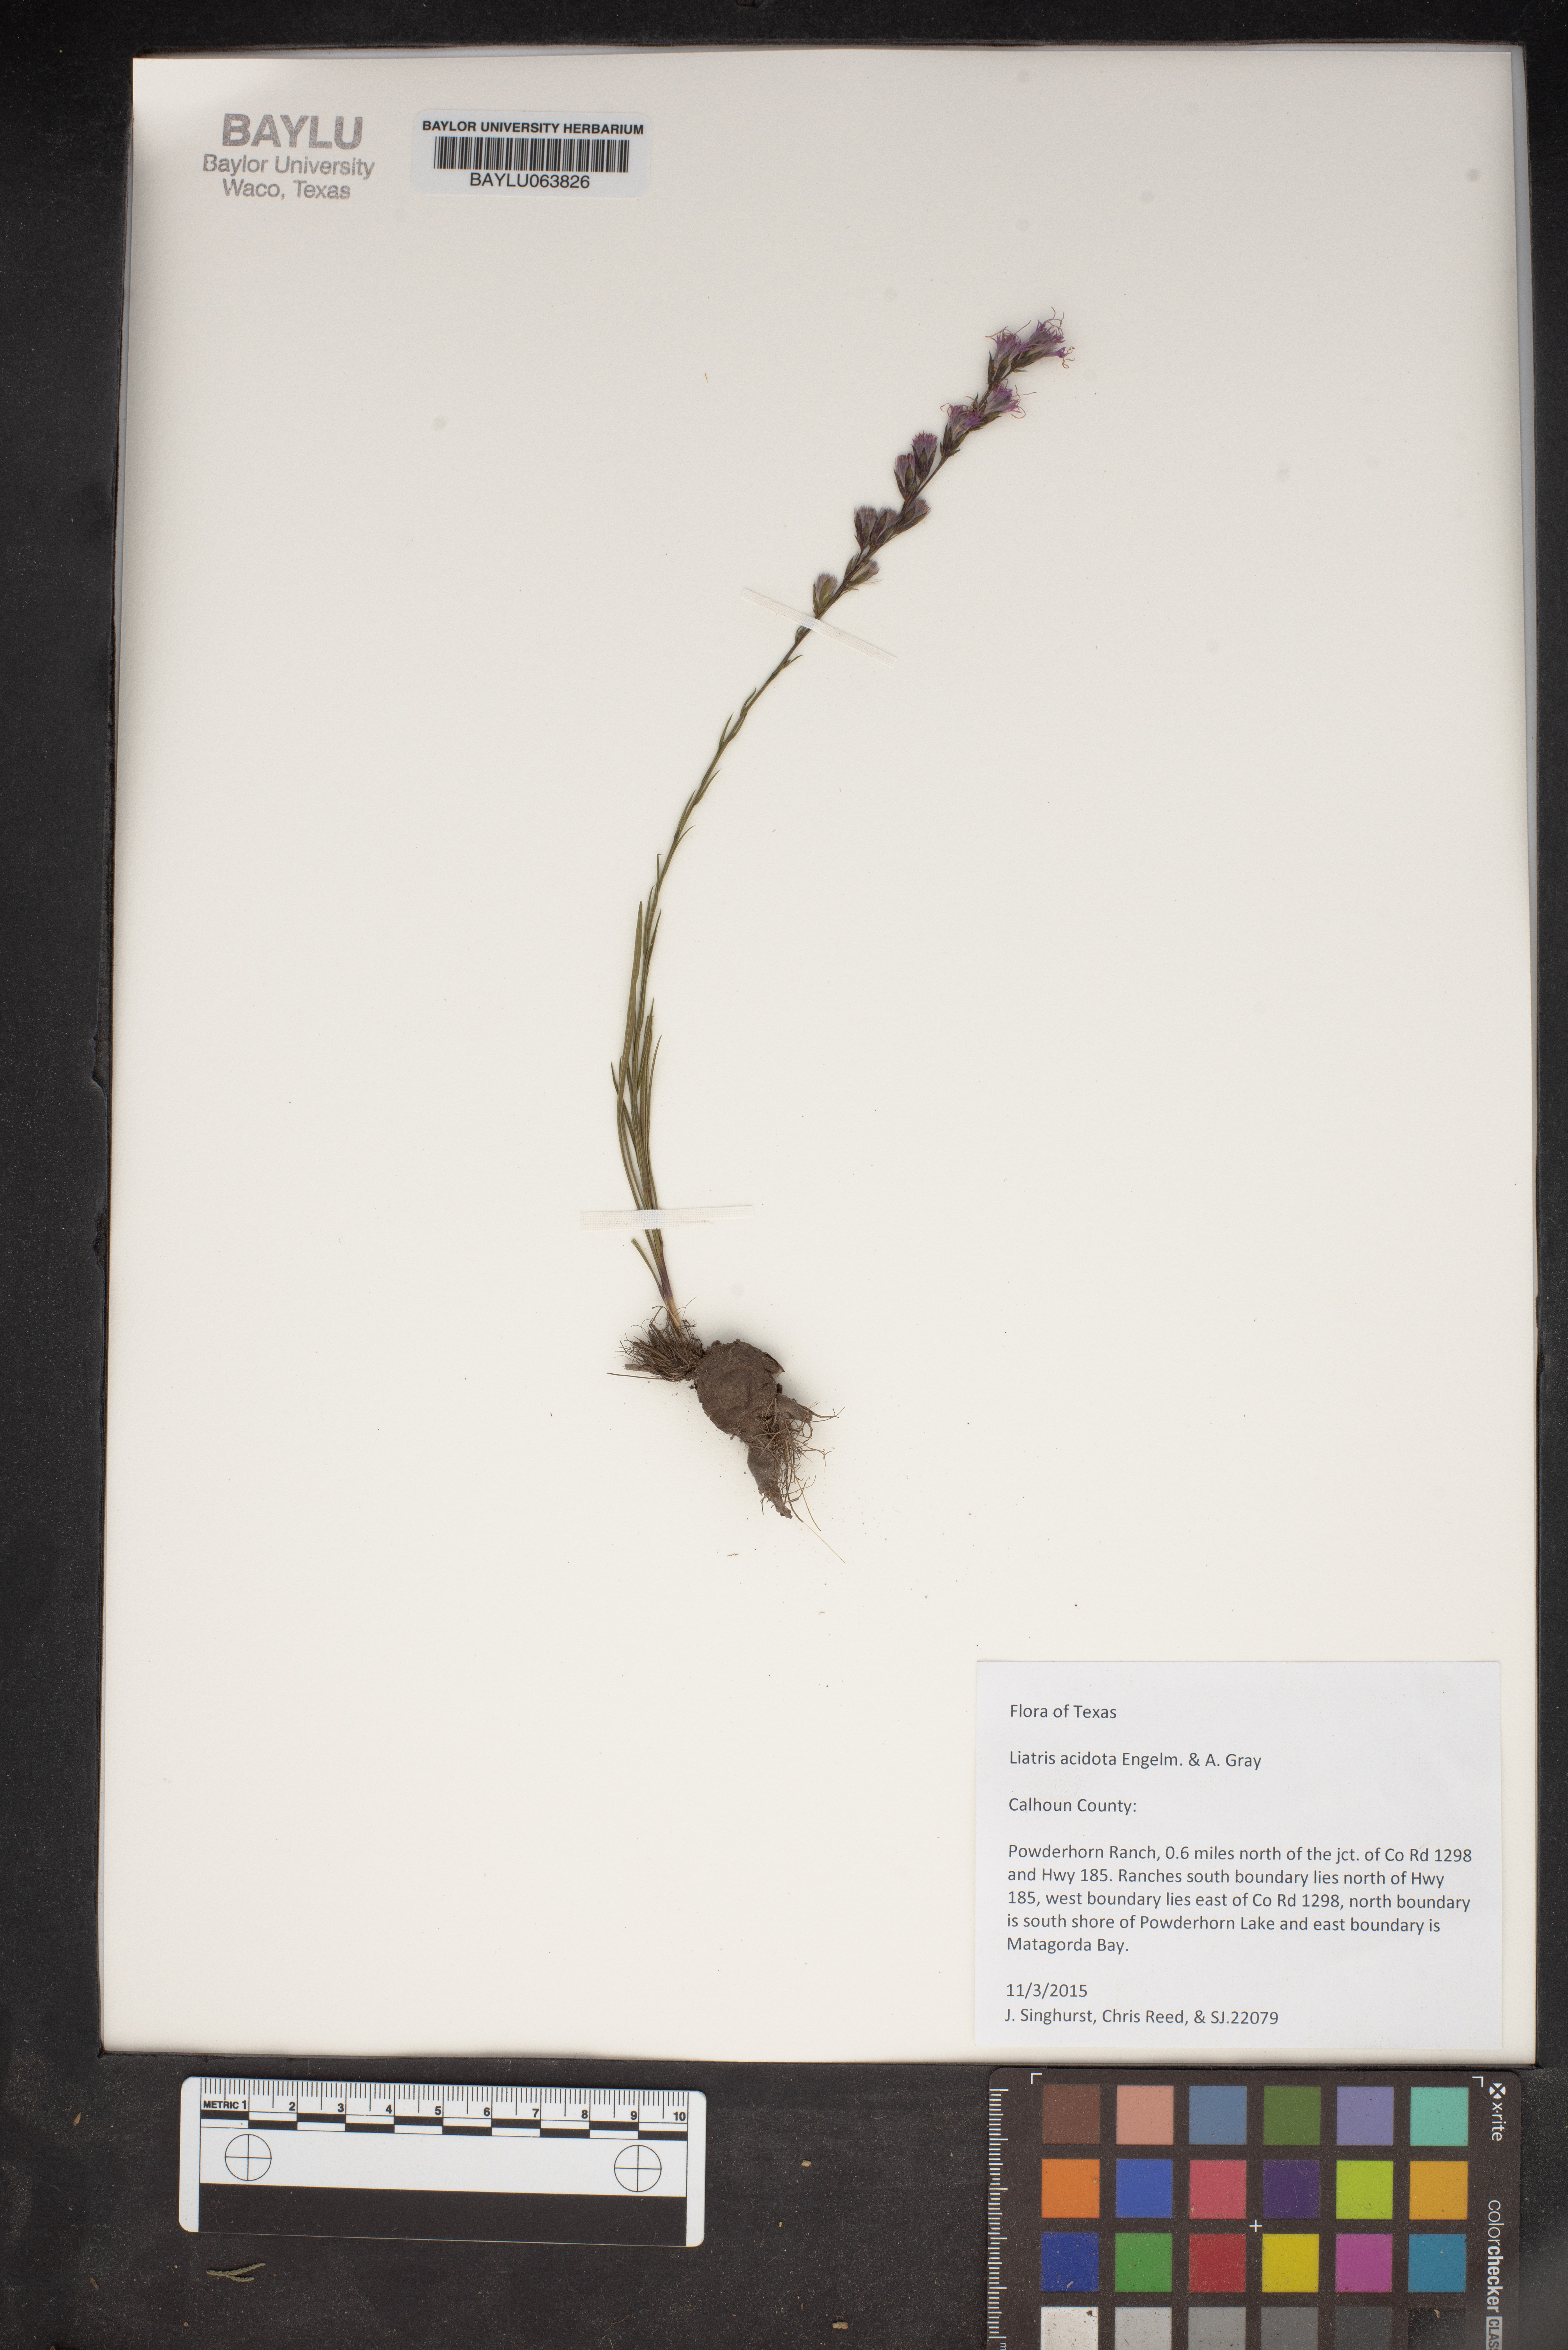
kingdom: Plantae
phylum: Tracheophyta
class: Magnoliopsida
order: Asterales
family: Asteraceae
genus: Liatris
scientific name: Liatris acidota
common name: Gulf coast gayfeather
